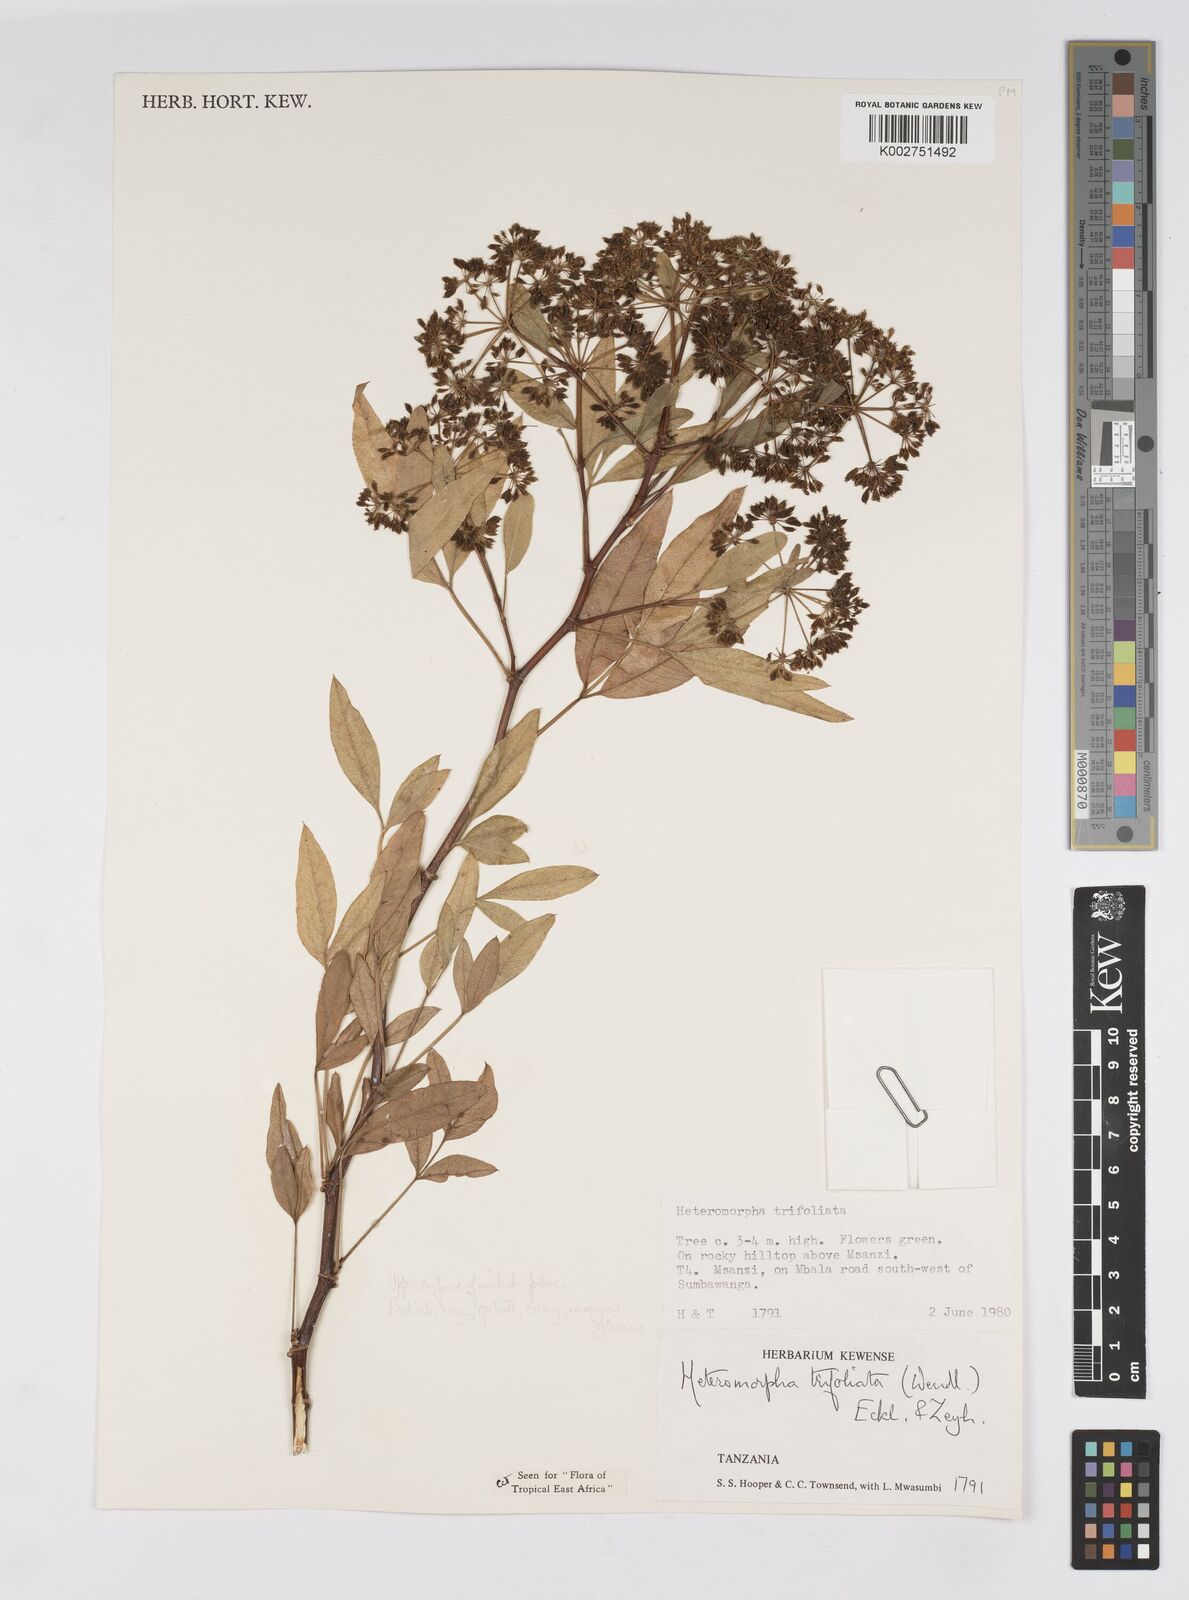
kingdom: Plantae
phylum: Tracheophyta
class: Magnoliopsida
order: Apiales
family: Apiaceae
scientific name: Apiaceae
